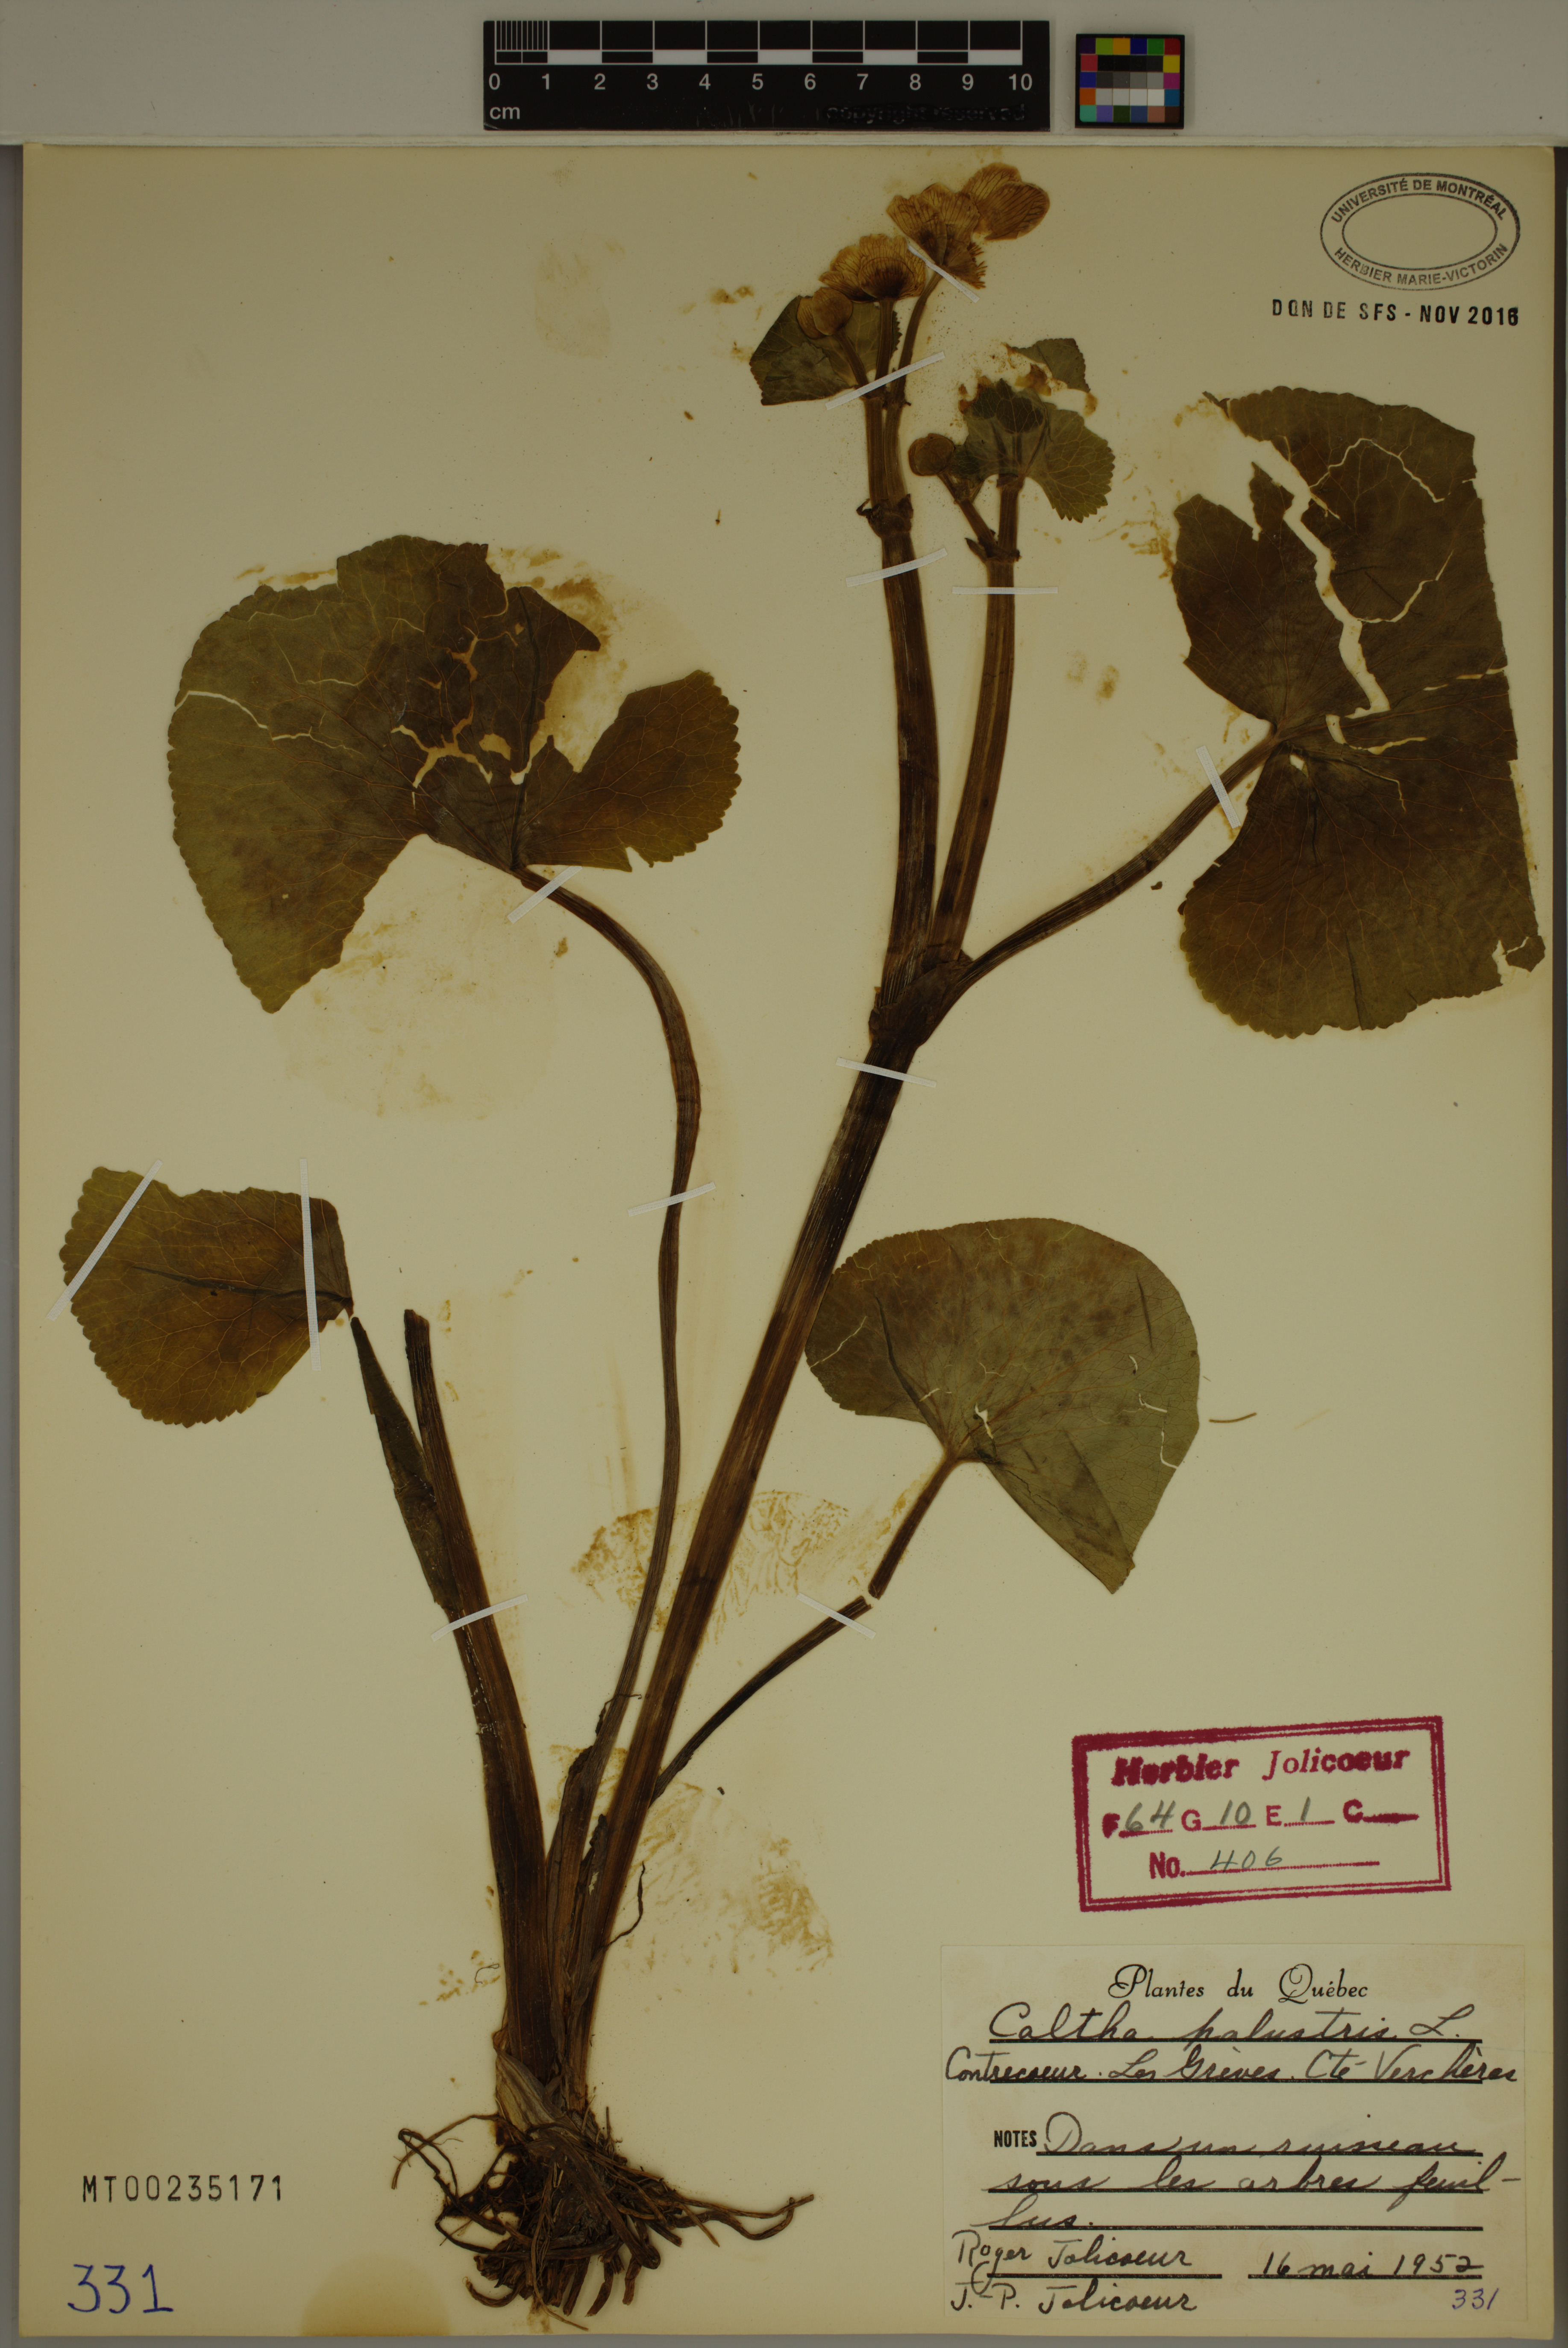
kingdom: Plantae
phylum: Tracheophyta
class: Magnoliopsida
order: Ranunculales
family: Ranunculaceae
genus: Caltha
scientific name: Caltha palustris
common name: Marsh marigold
